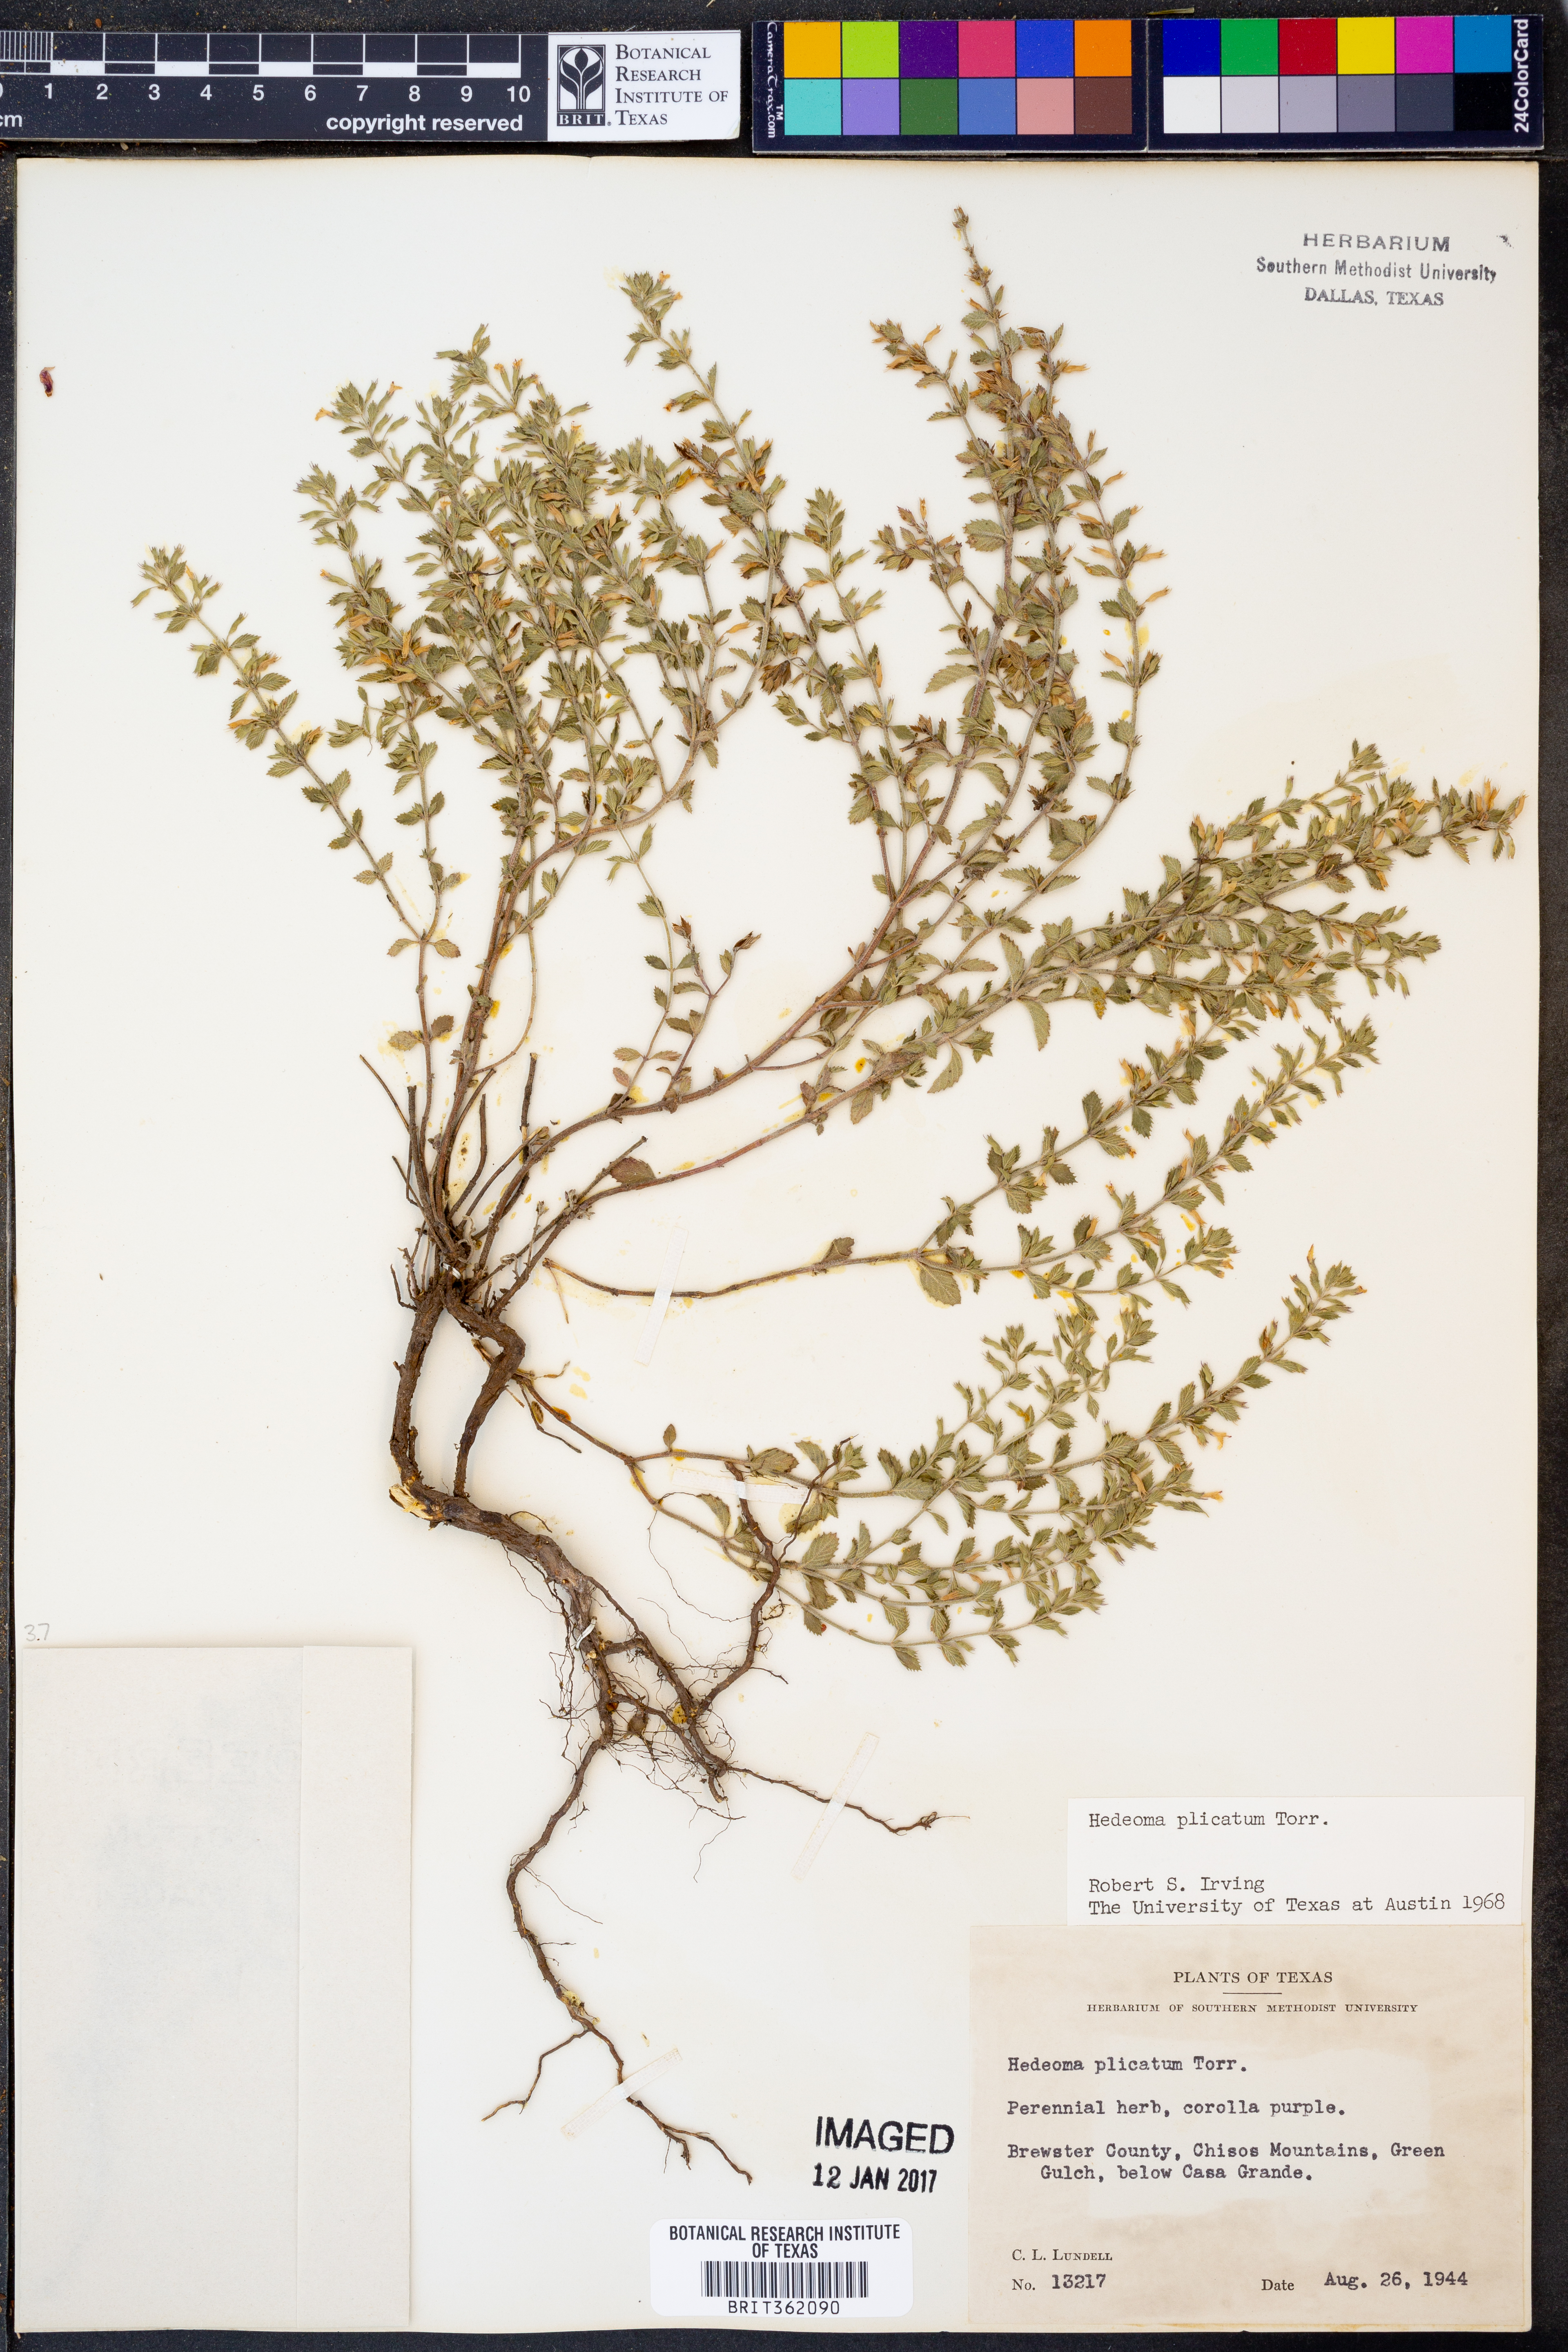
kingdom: Plantae
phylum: Tracheophyta
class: Magnoliopsida
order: Lamiales
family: Lamiaceae
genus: Hedeoma
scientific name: Hedeoma plicata
